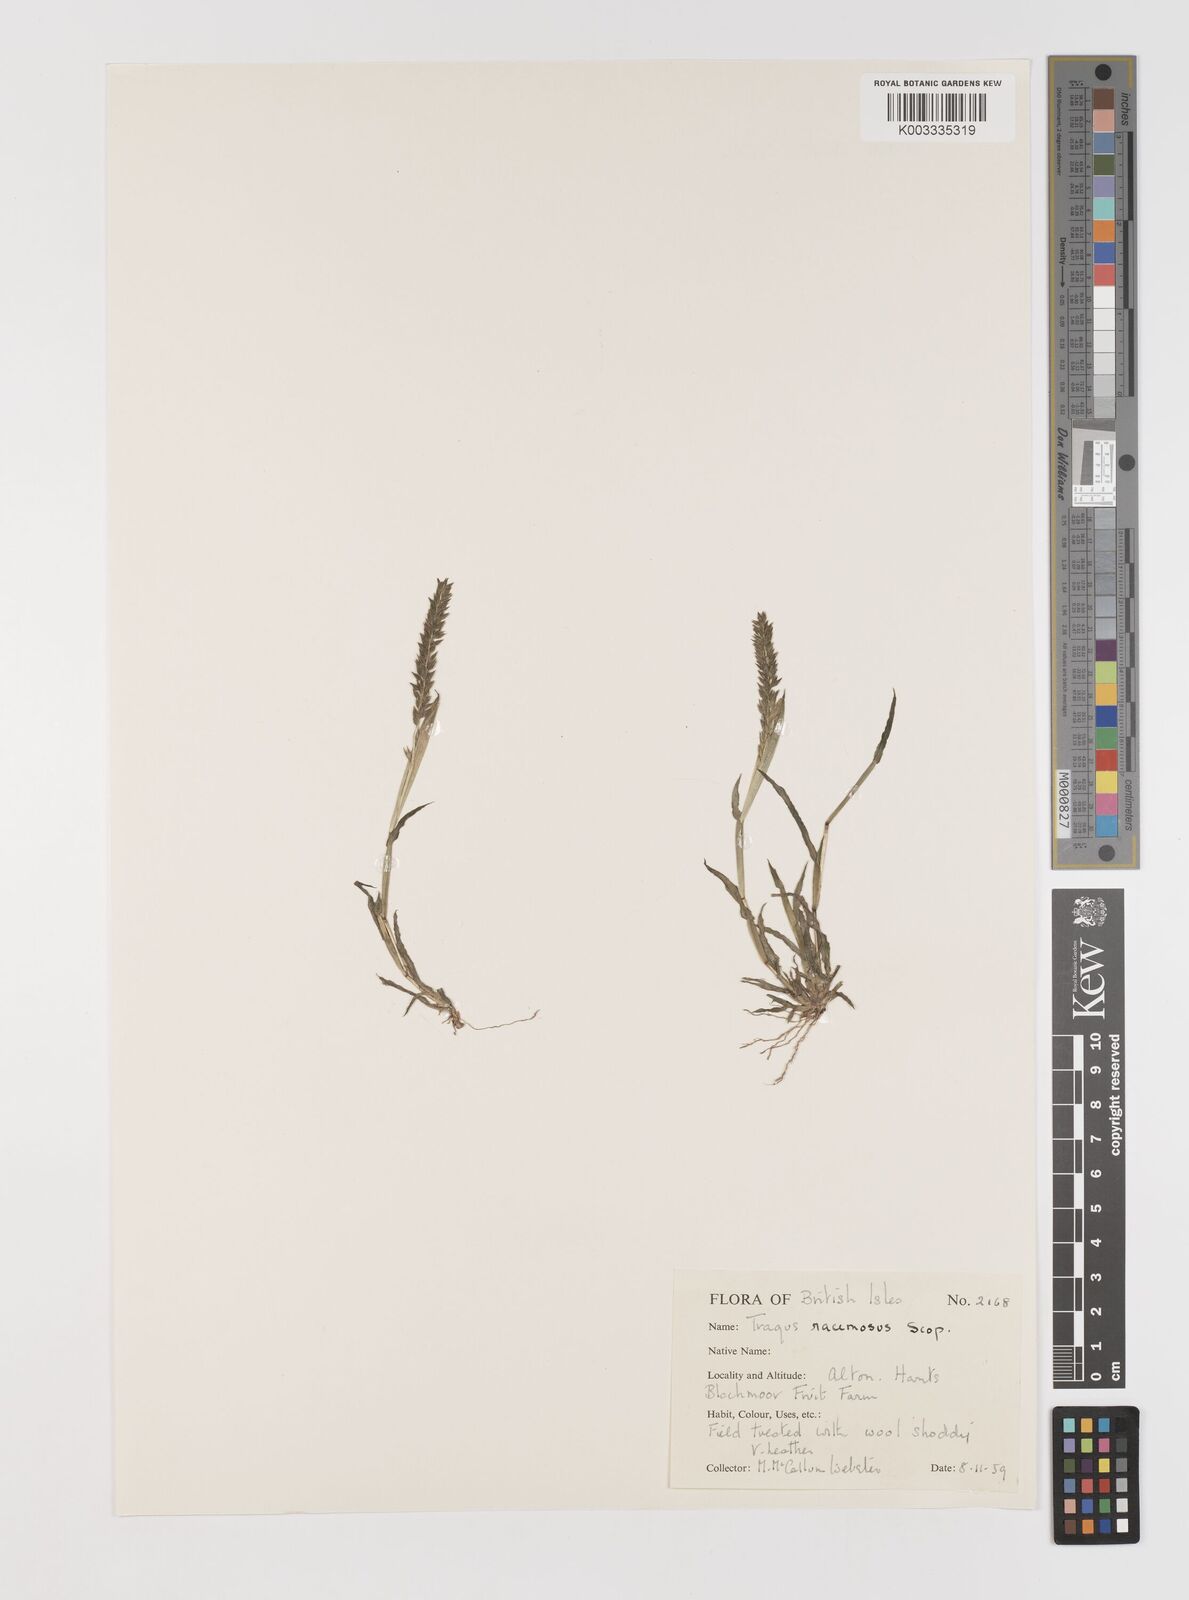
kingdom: Plantae
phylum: Tracheophyta
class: Liliopsida
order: Poales
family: Poaceae
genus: Tragus
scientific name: Tragus racemosus
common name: European bur-grass
